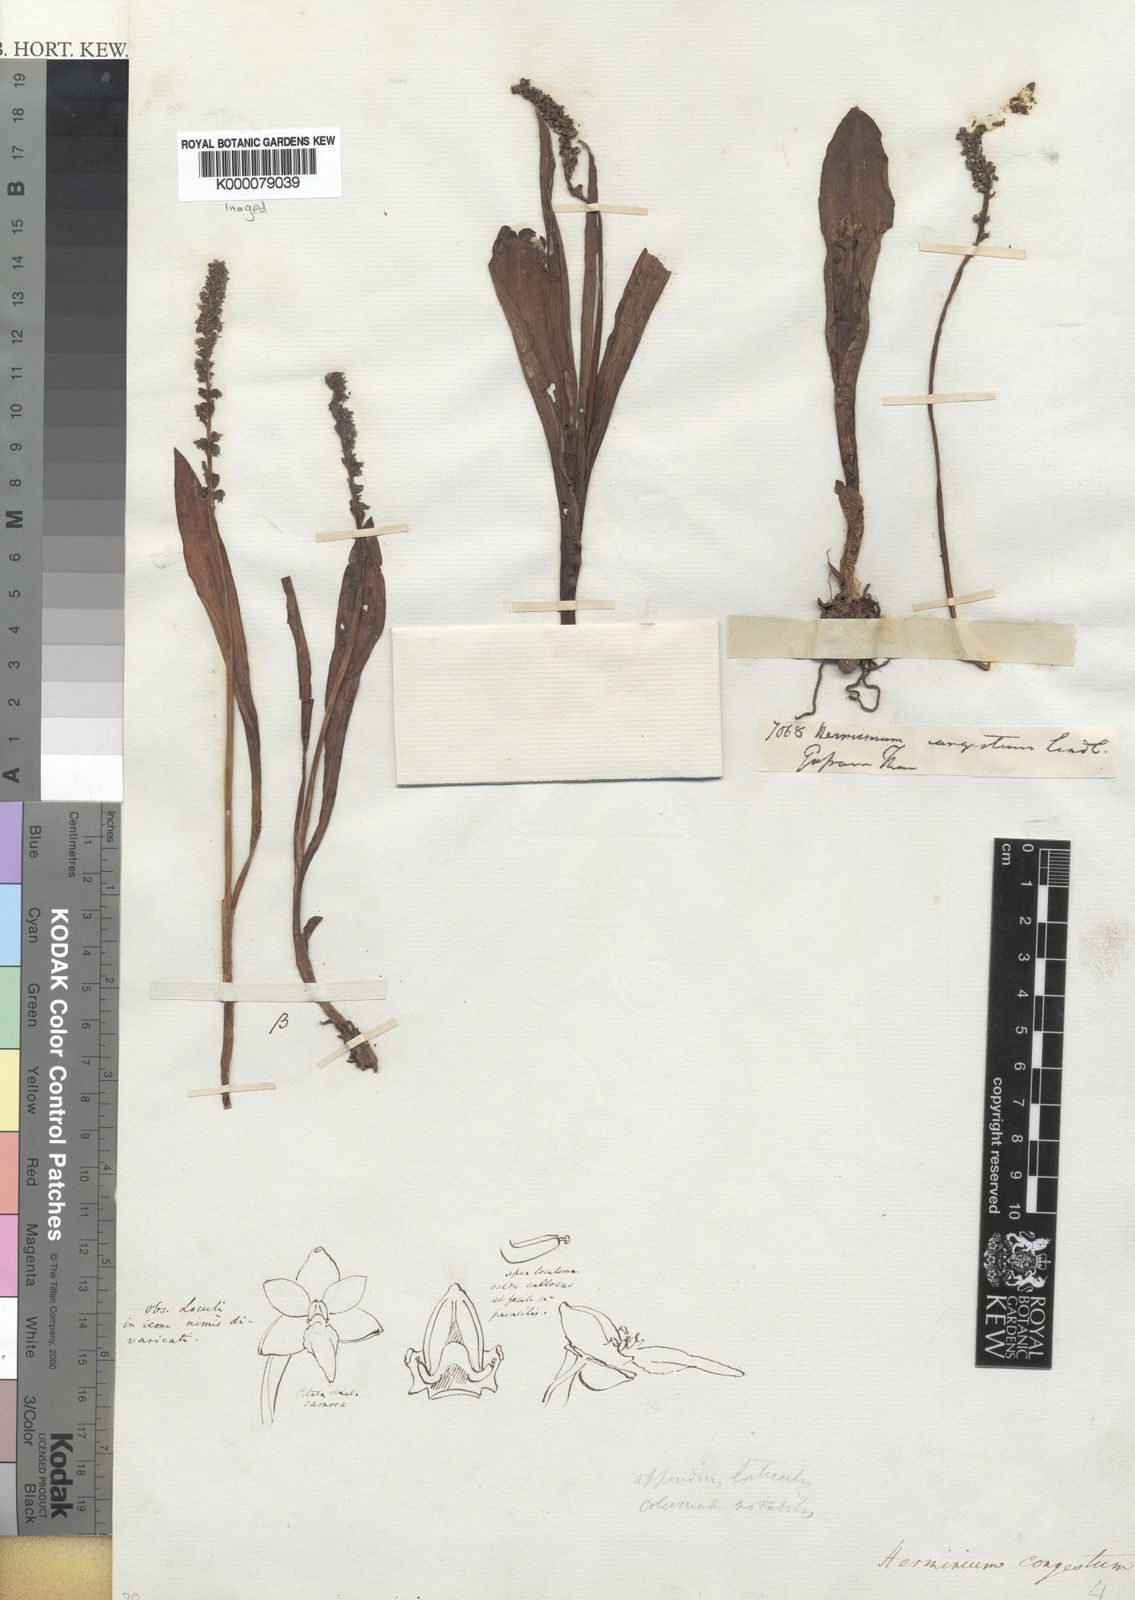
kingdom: Plantae
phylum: Tracheophyta
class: Liliopsida
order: Asparagales
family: Orchidaceae
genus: Herminium
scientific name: Herminium macrophyllum
